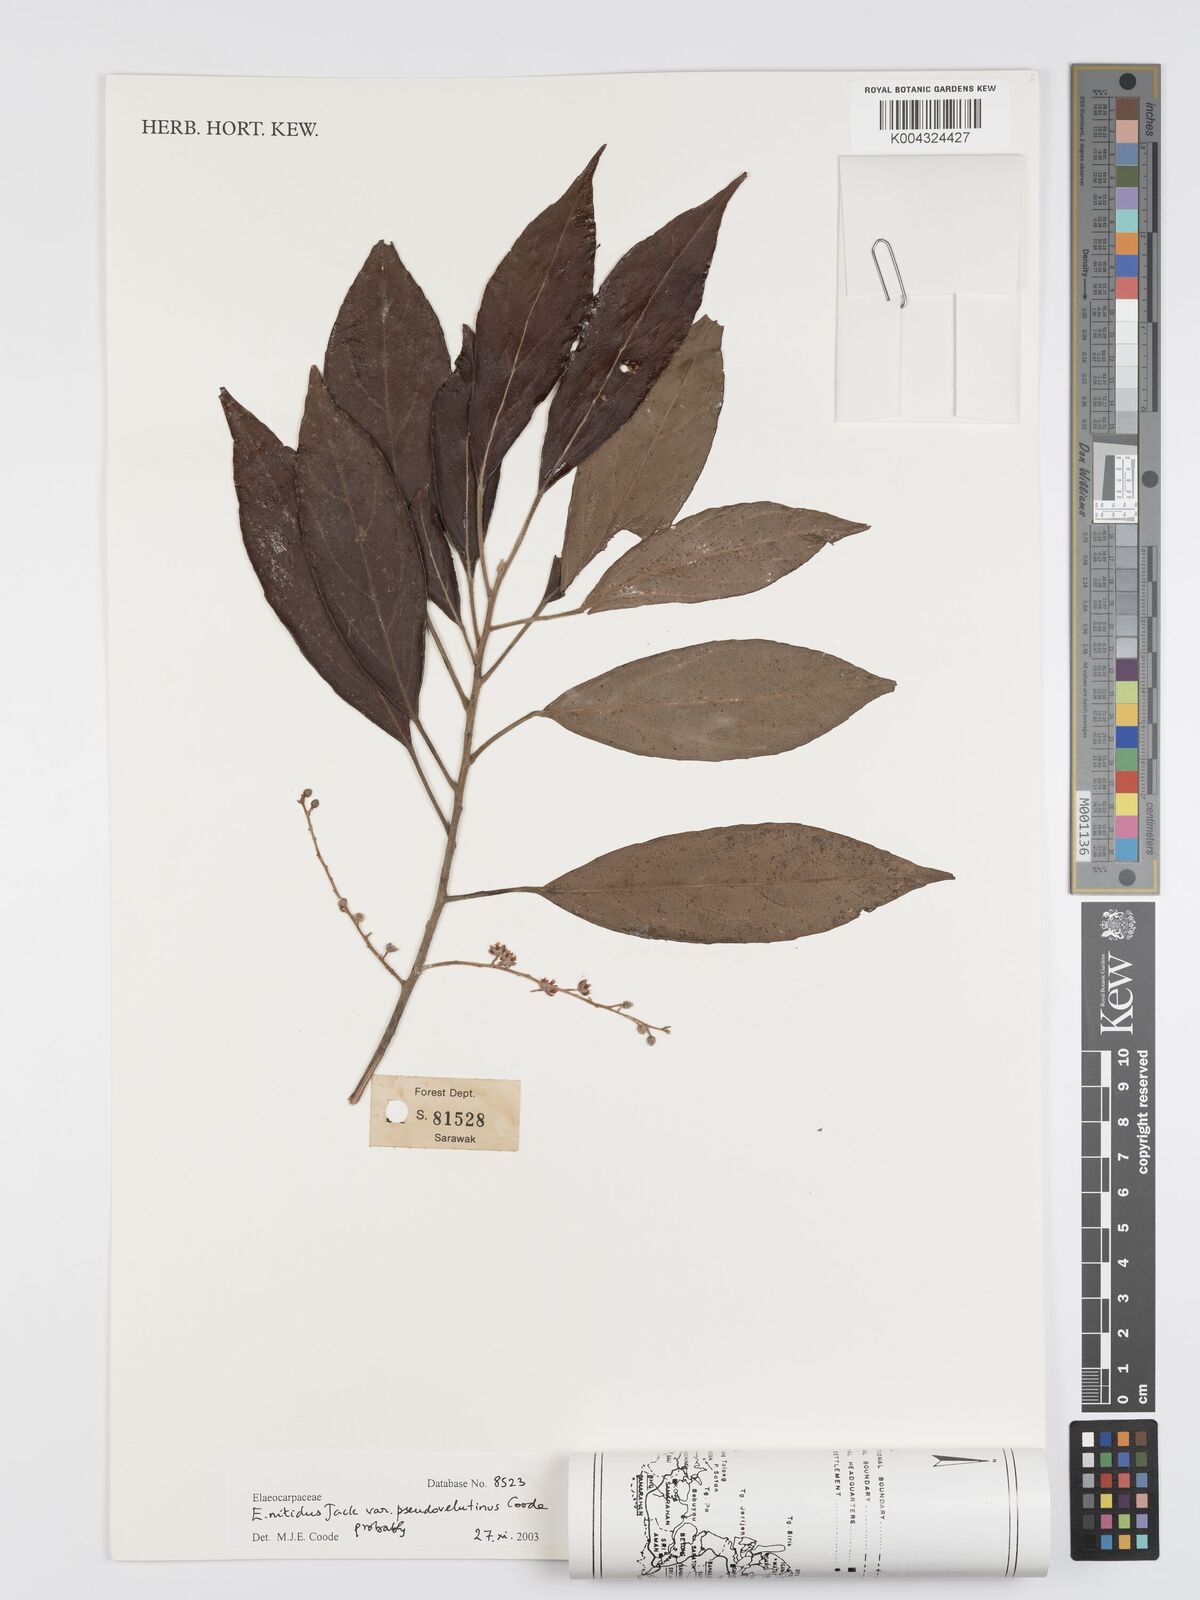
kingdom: Plantae
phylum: Tracheophyta
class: Magnoliopsida
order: Oxalidales
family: Elaeocarpaceae
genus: Elaeocarpus
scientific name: Elaeocarpus nitidus
